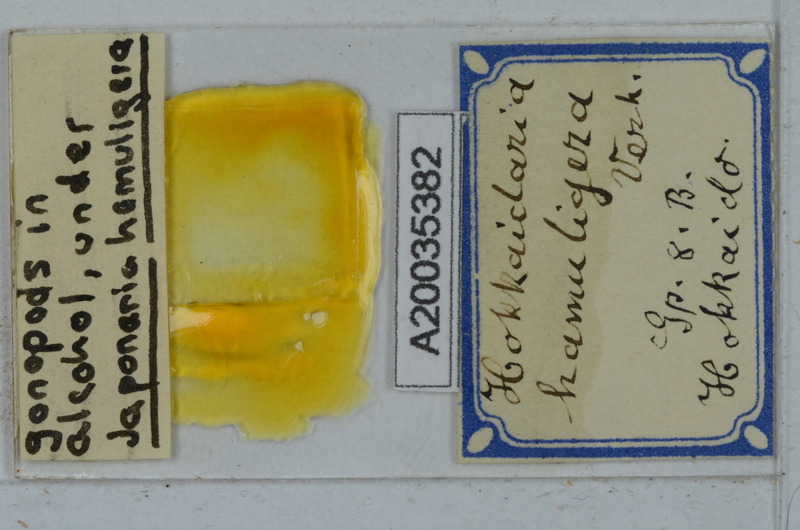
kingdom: Animalia
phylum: Arthropoda
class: Diplopoda
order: Polydesmida
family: Xystodesmidae
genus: Levizonus
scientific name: Levizonus montanus
